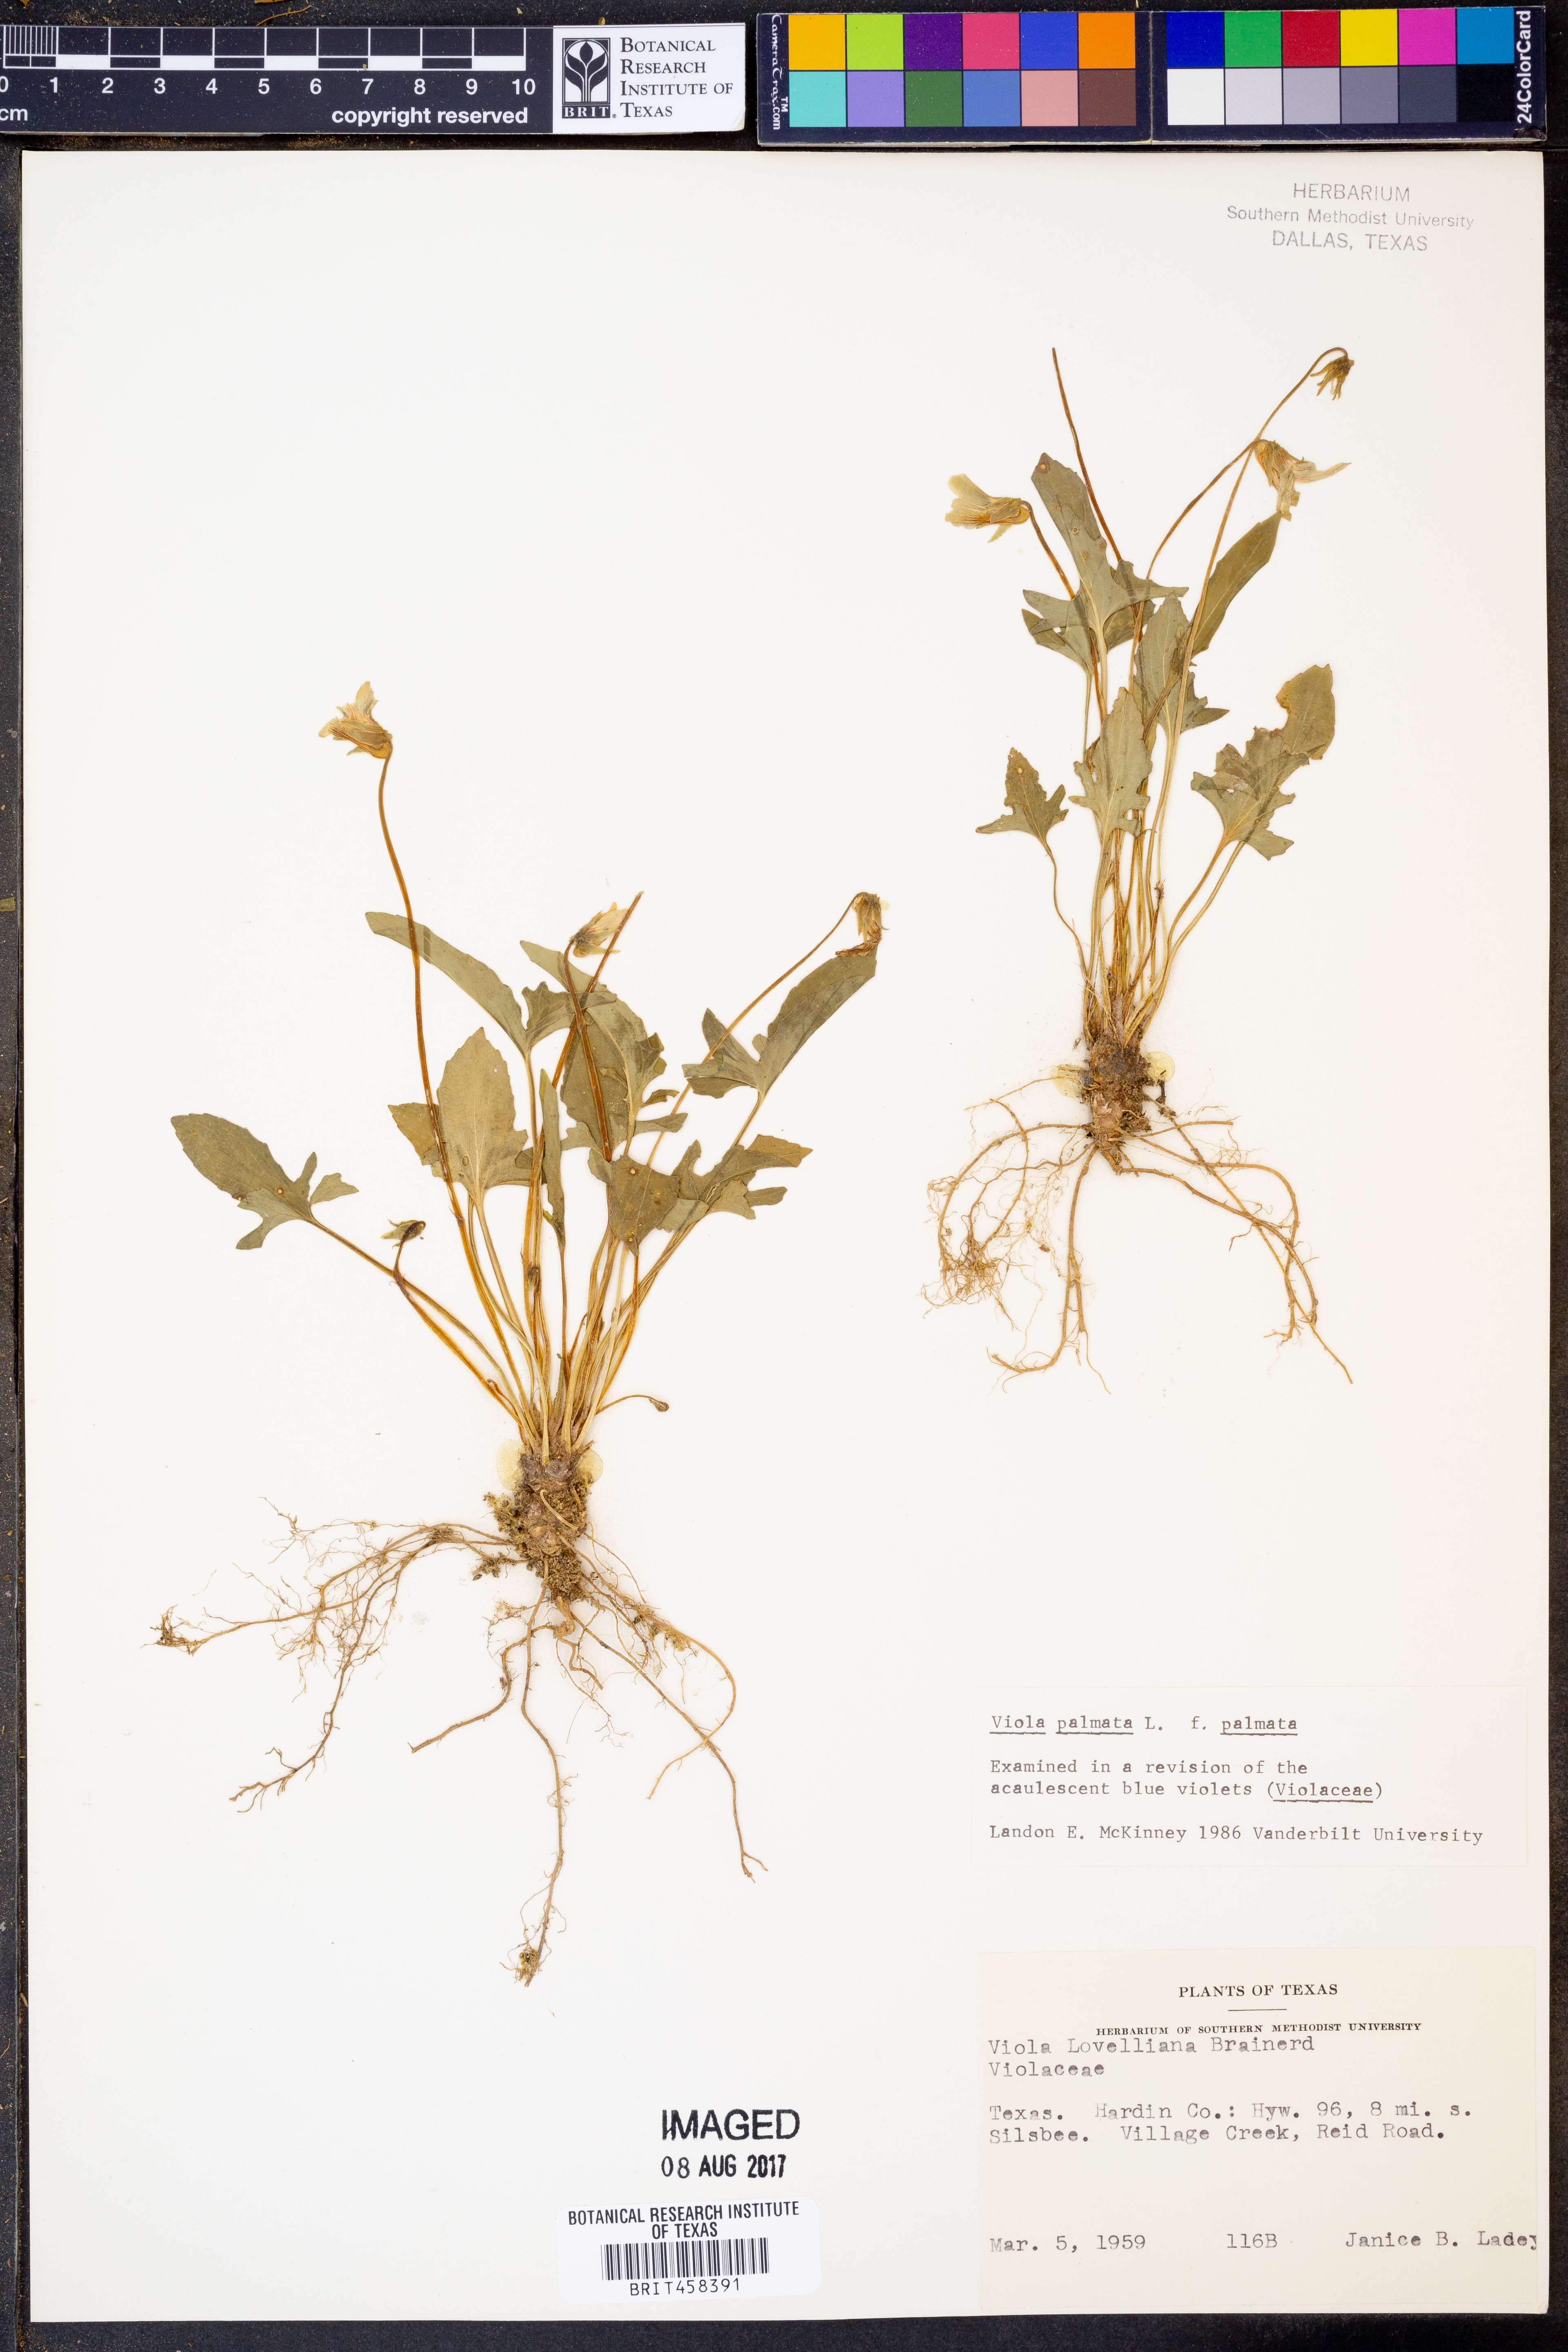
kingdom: Plantae
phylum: Tracheophyta
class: Magnoliopsida
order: Malpighiales
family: Violaceae
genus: Viola
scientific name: Viola palmata
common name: Early blue violet
